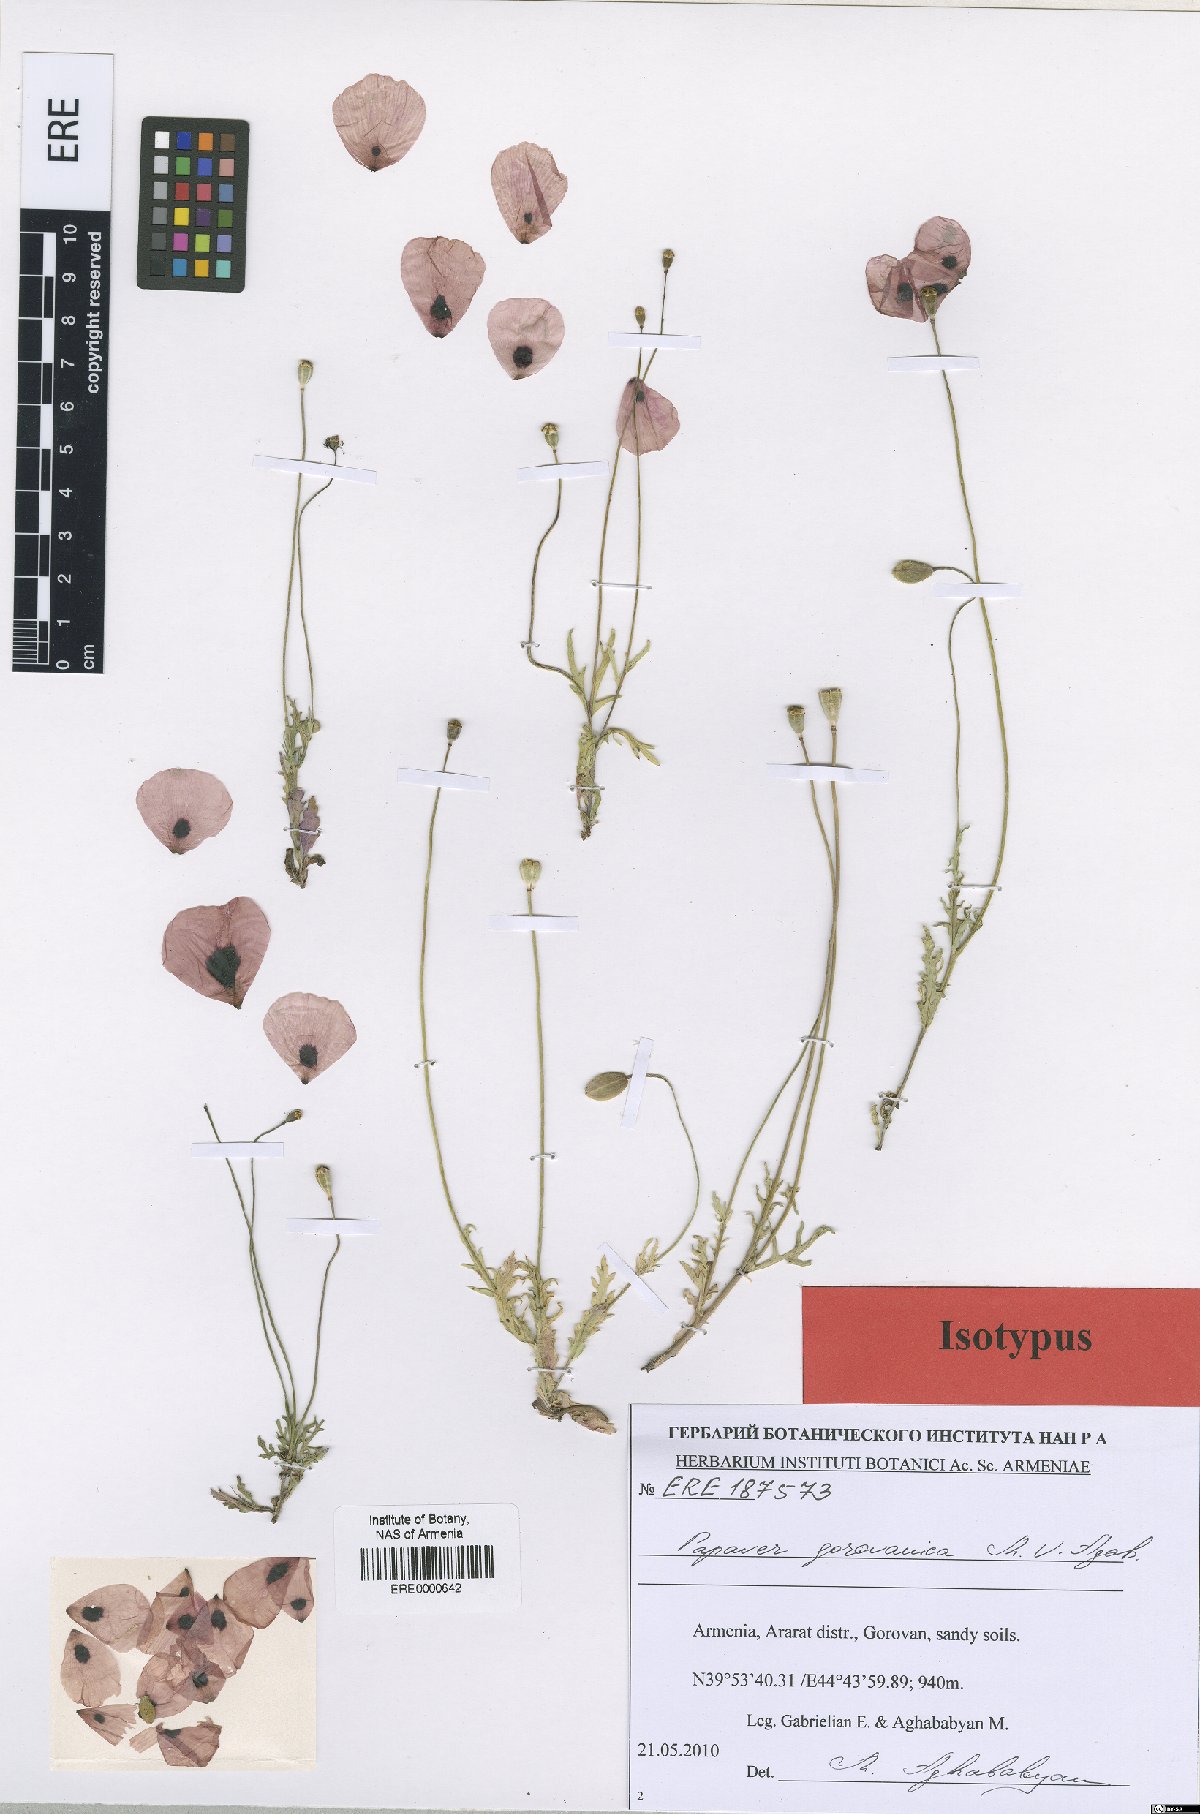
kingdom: Plantae
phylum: Tracheophyta
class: Magnoliopsida
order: Ranunculales
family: Papaveraceae
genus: Papaver
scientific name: Papaver gorovanicum
